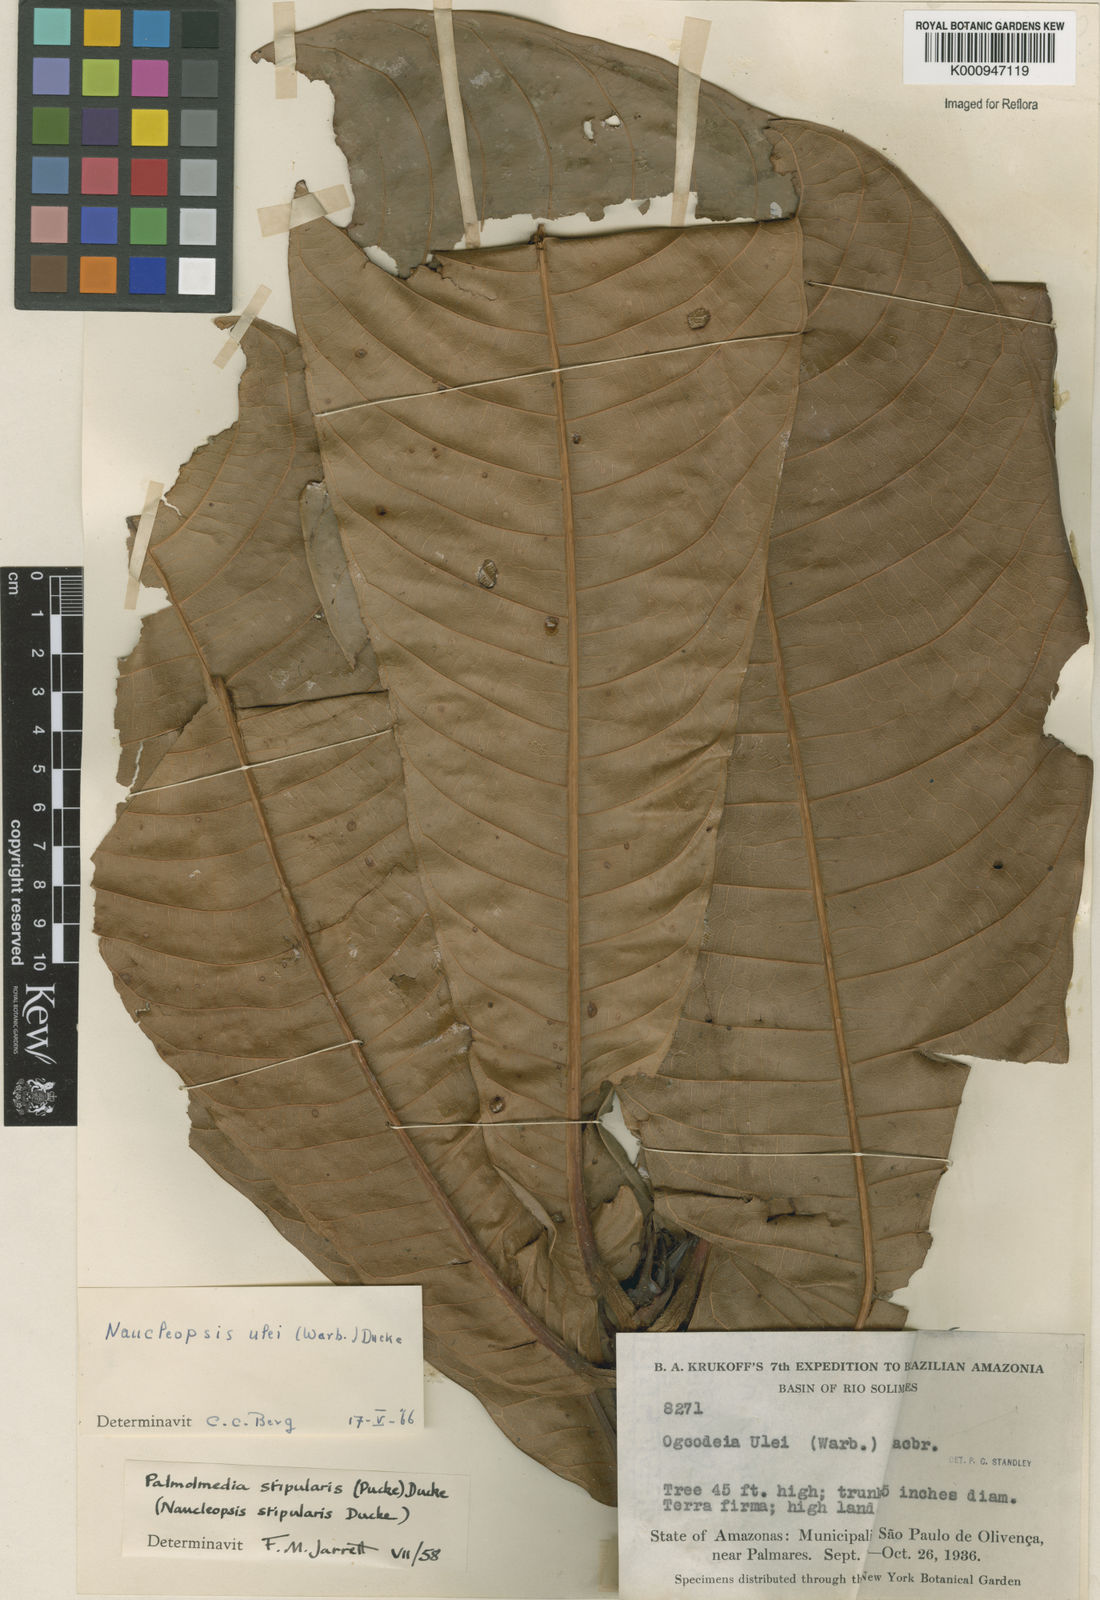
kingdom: Plantae
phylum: Tracheophyta
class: Magnoliopsida
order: Rosales
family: Moraceae
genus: Naucleopsis
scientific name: Naucleopsis ulei
